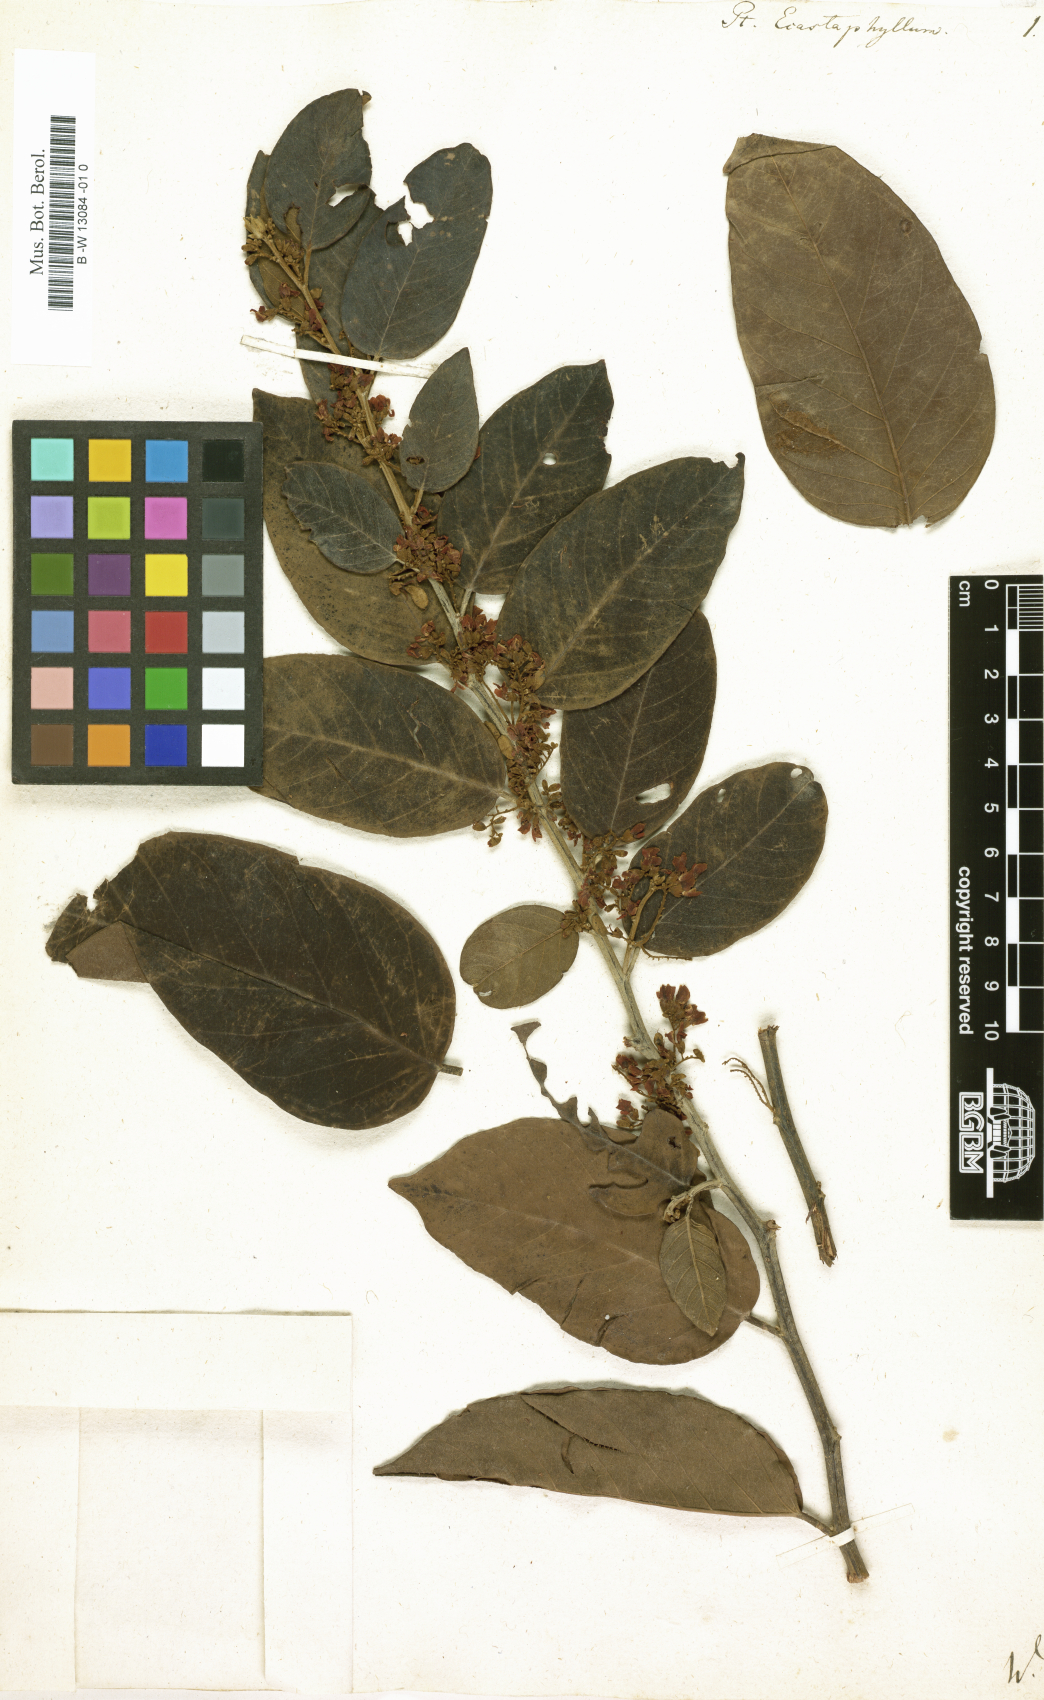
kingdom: Plantae
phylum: Tracheophyta
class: Magnoliopsida
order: Fabales
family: Fabaceae
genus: Pterocarpus
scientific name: Pterocarpus
